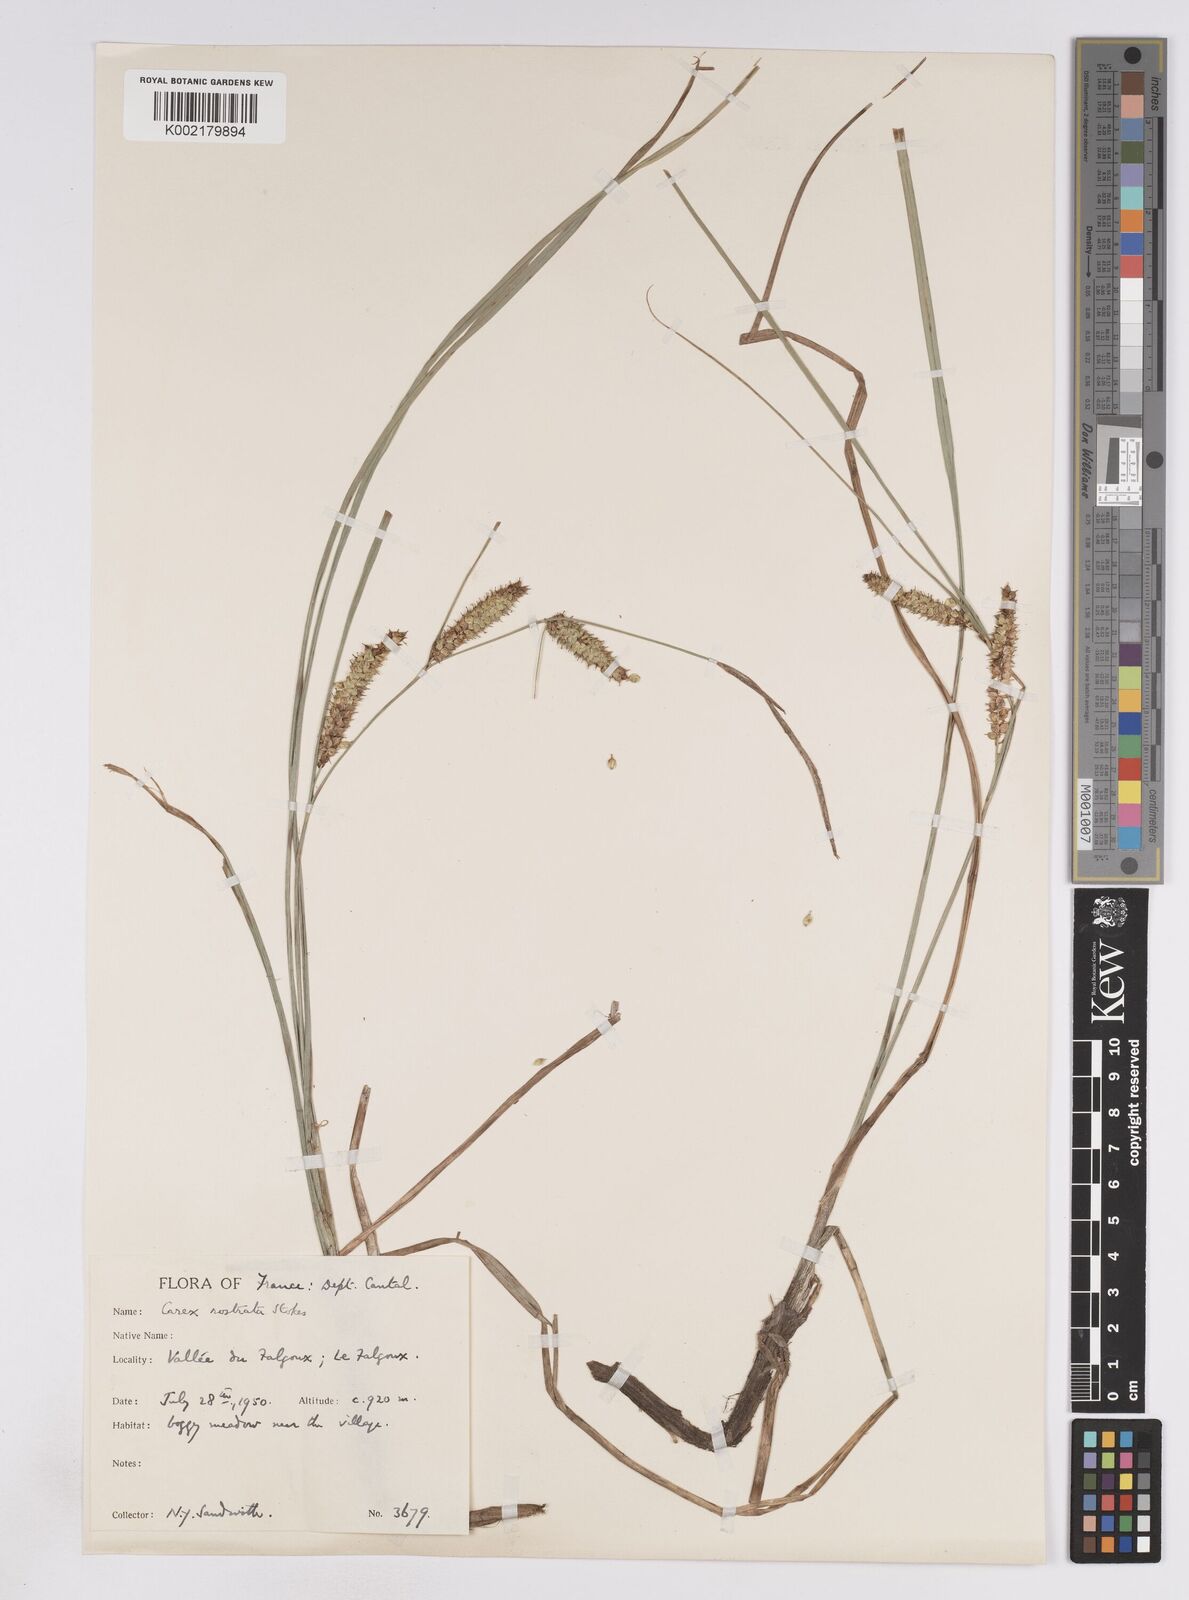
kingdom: Plantae
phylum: Tracheophyta
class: Liliopsida
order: Poales
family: Cyperaceae
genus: Carex
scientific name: Carex rostrata
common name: Bottle sedge
